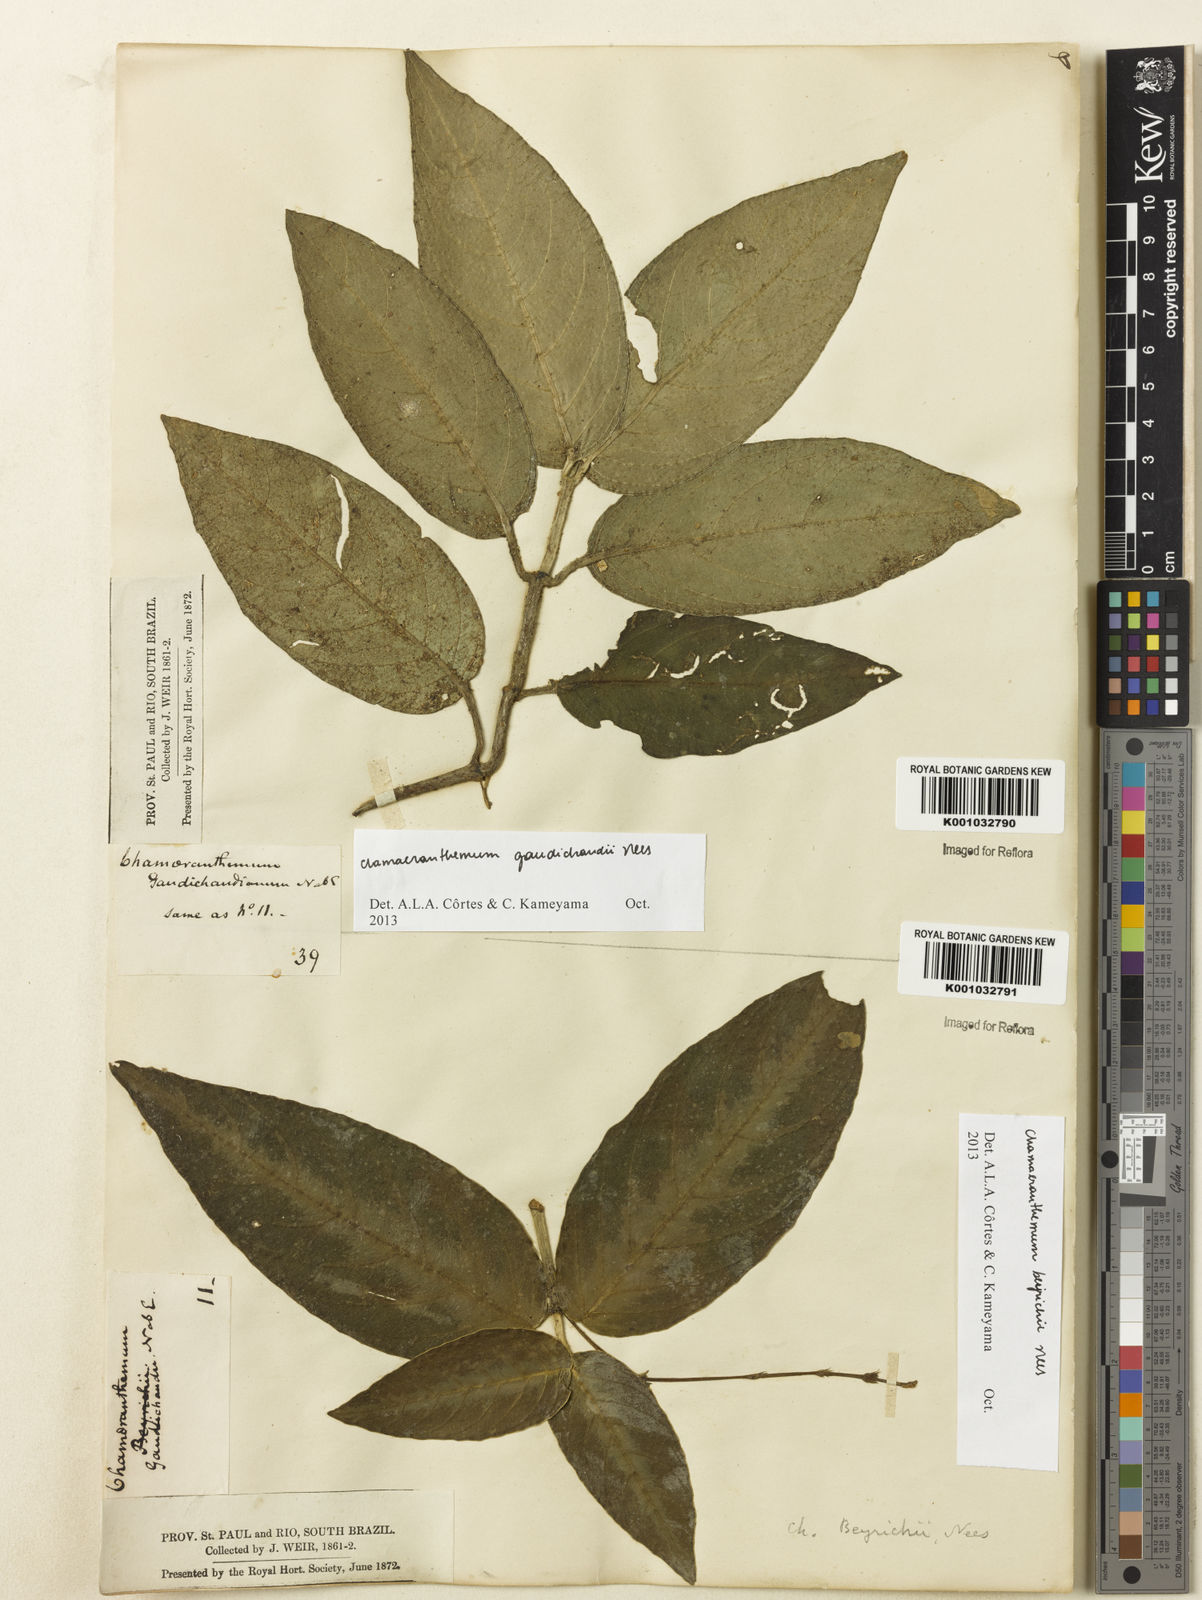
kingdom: Plantae
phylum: Tracheophyta
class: Magnoliopsida
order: Lamiales
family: Acanthaceae
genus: Chamaeranthemum
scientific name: Chamaeranthemum beyrichii
